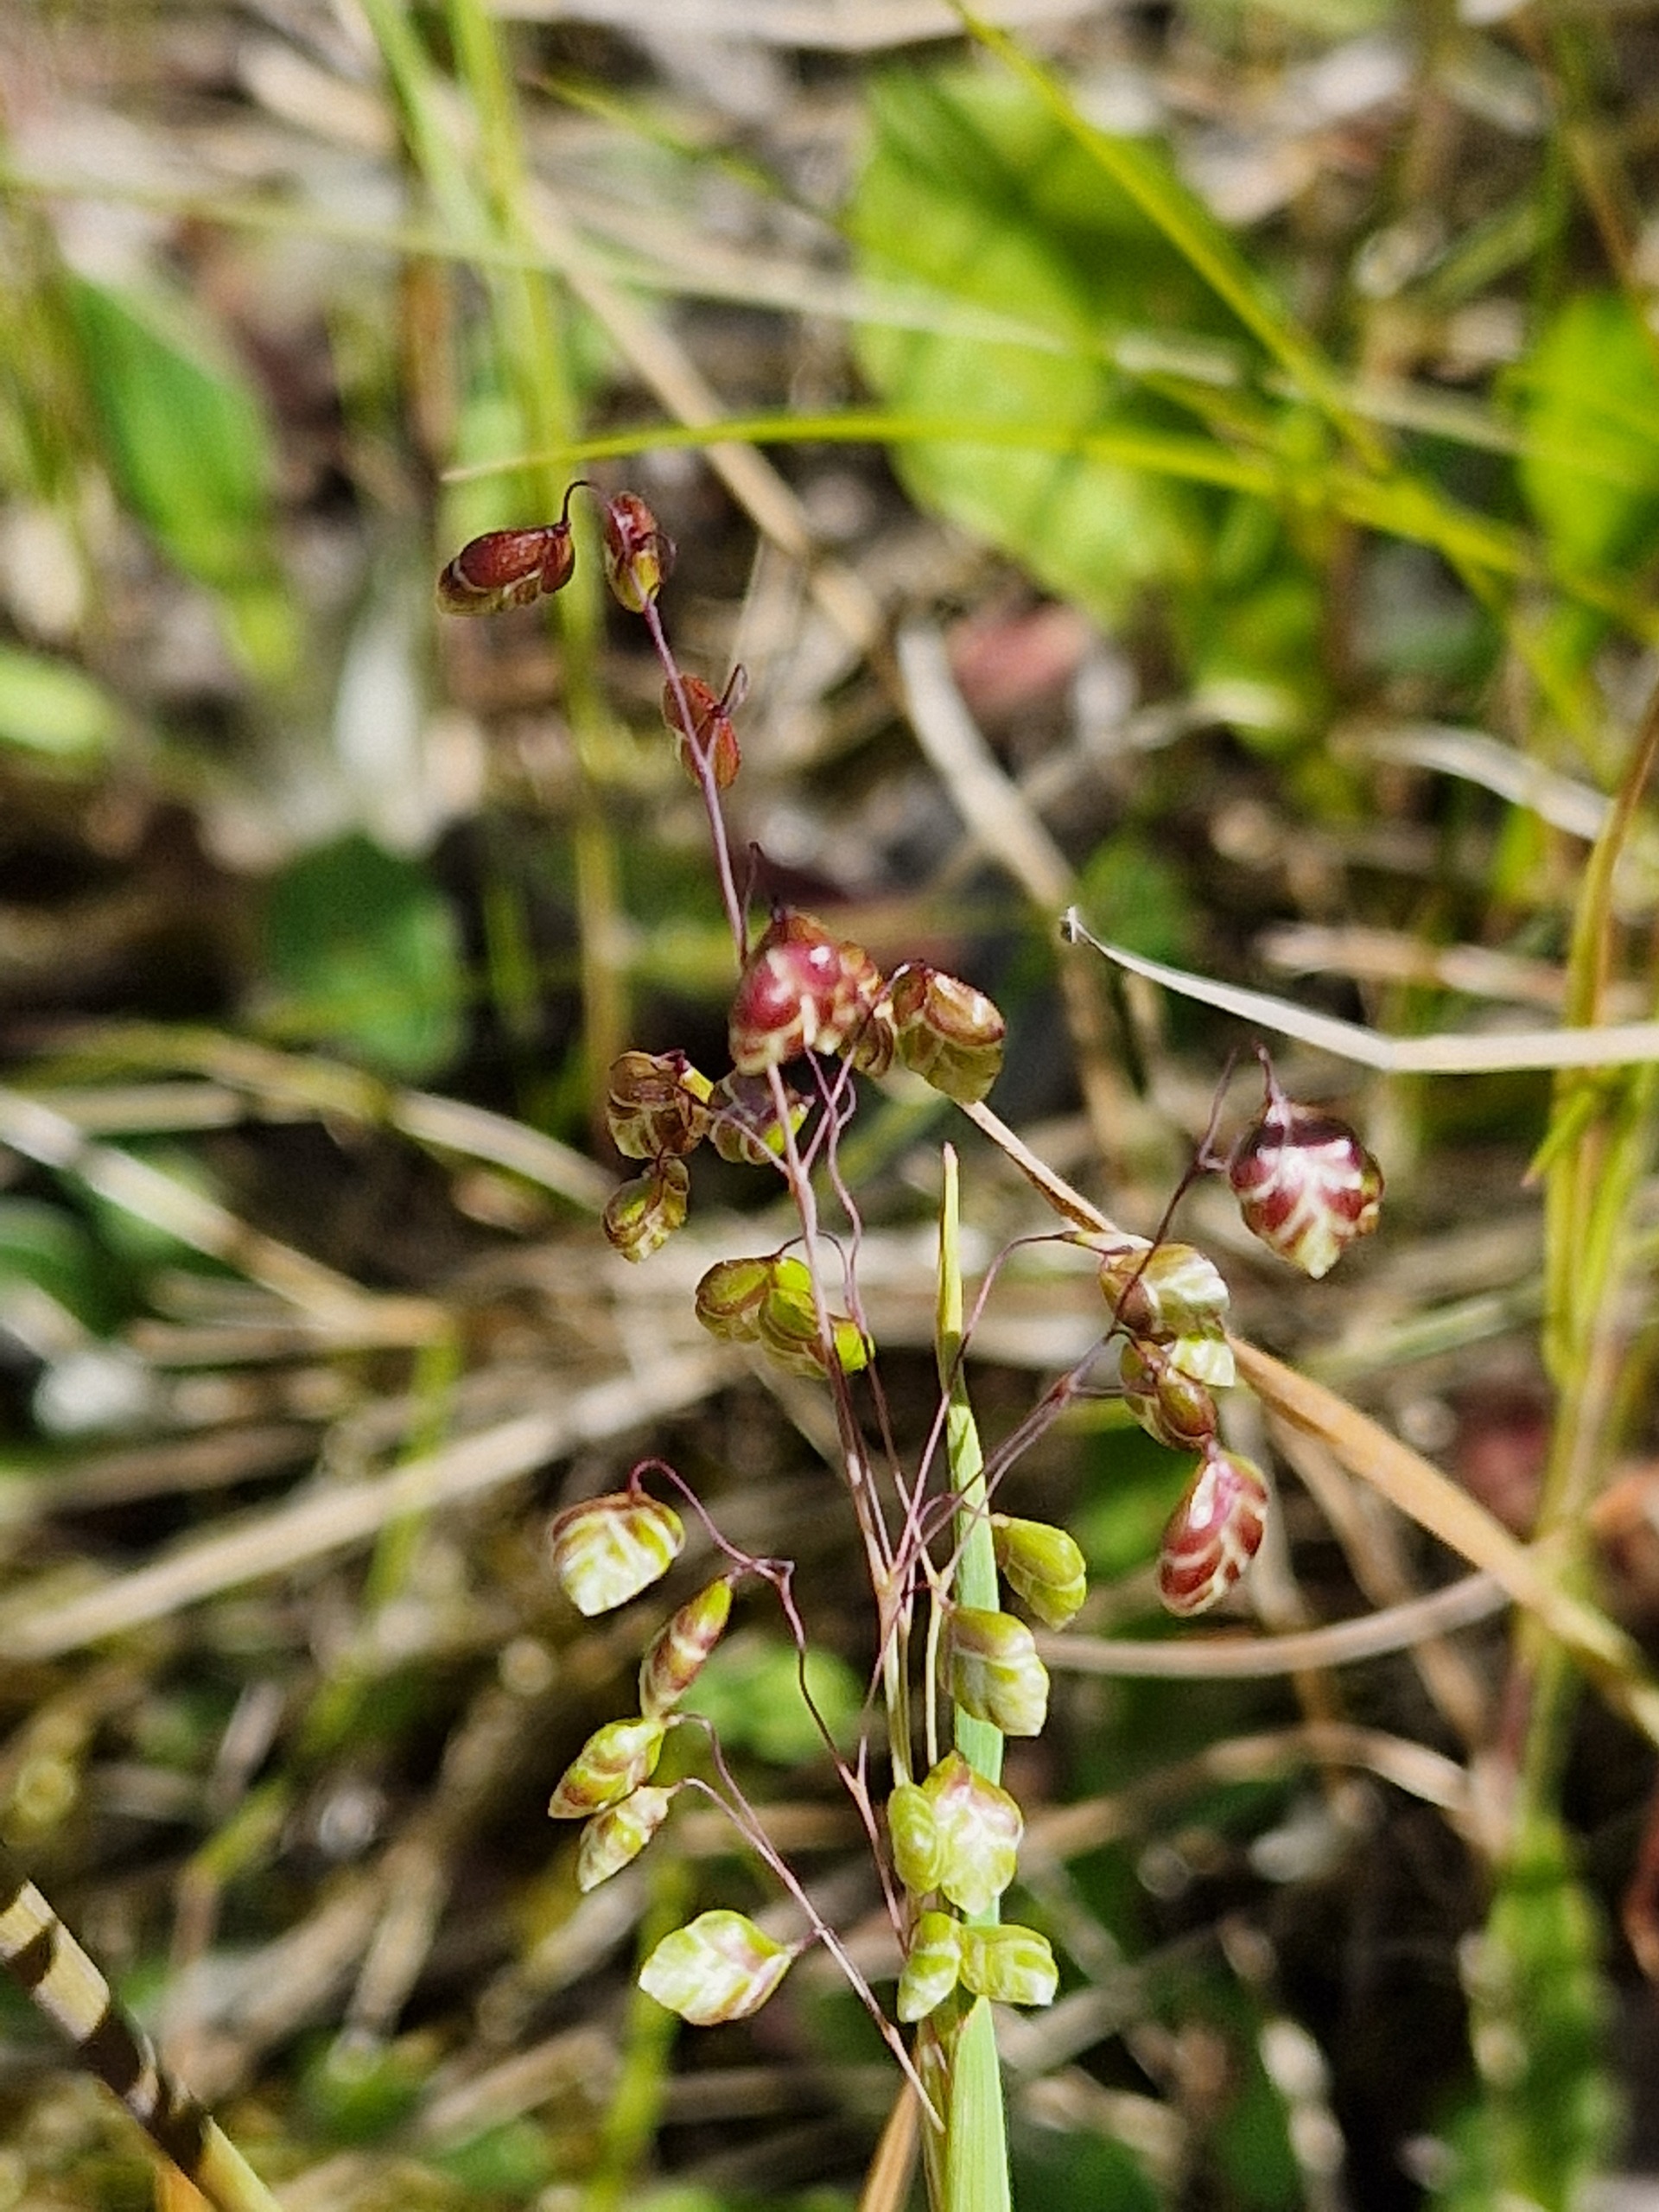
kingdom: Plantae
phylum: Tracheophyta
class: Liliopsida
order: Poales
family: Poaceae
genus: Briza
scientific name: Briza media
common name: Hjertegræs
